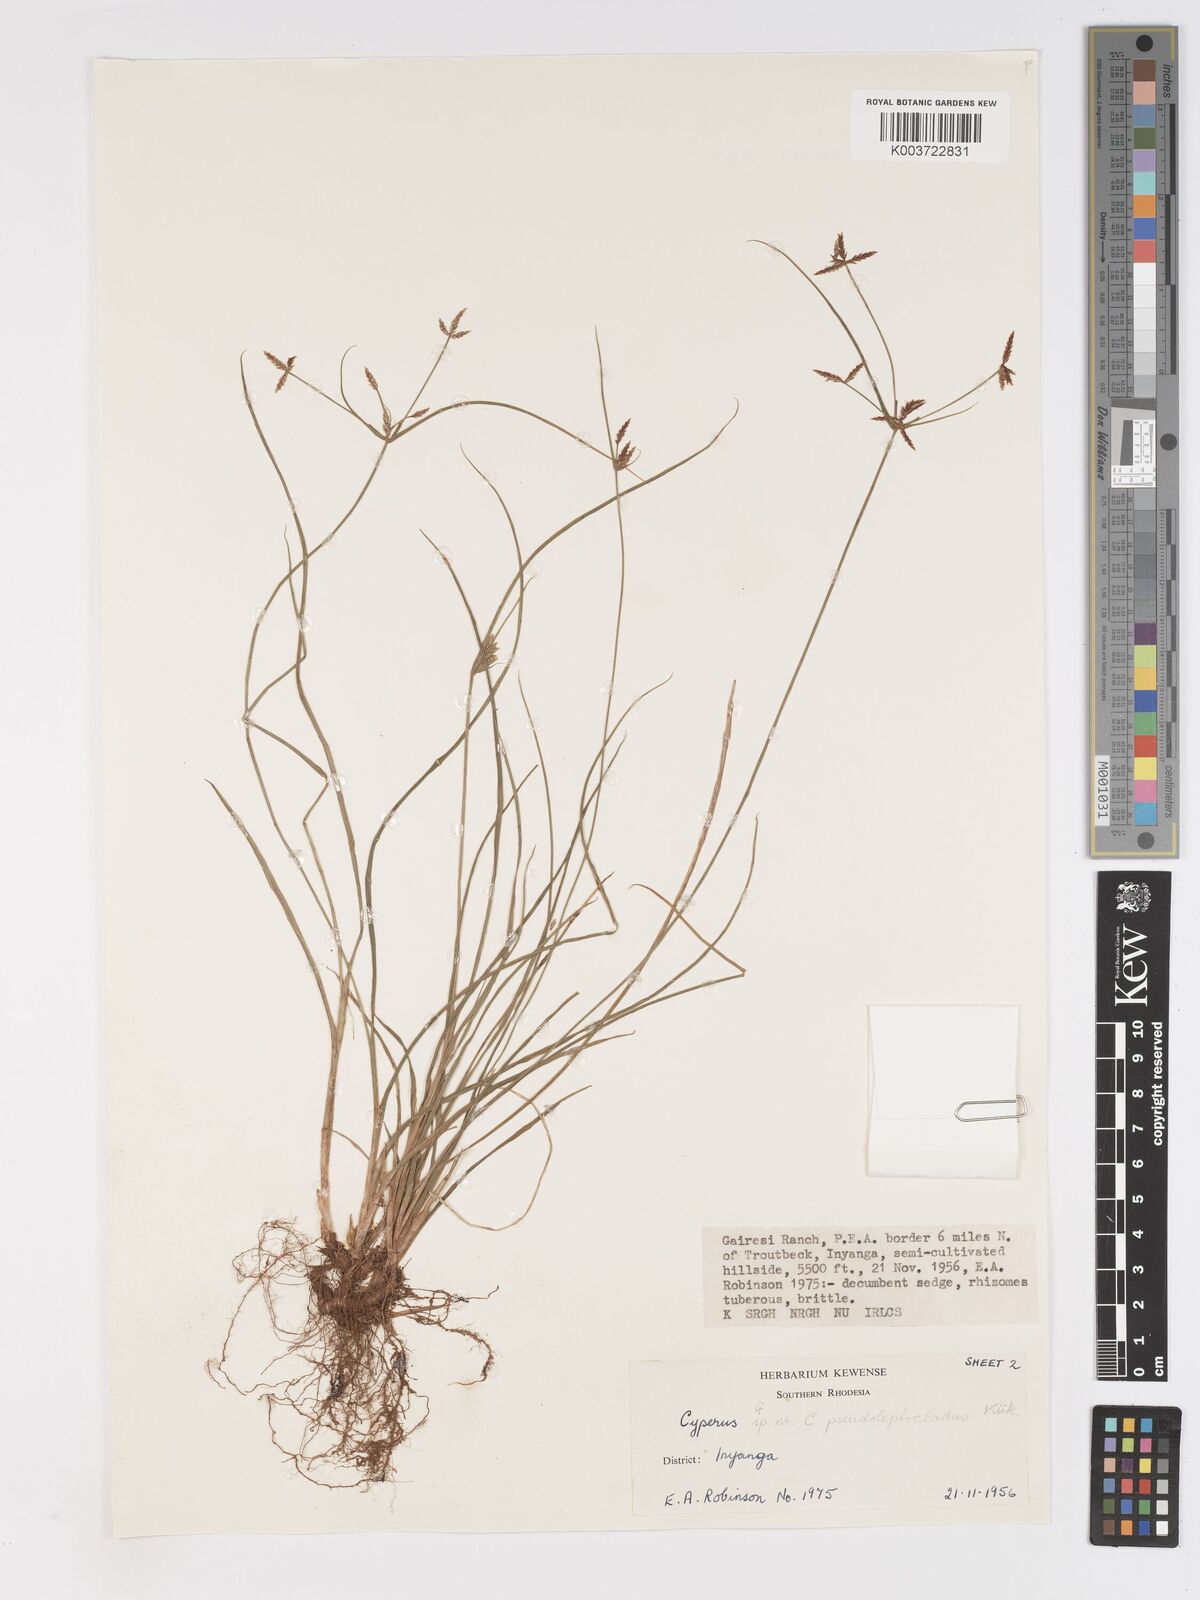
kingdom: Plantae
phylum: Tracheophyta
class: Liliopsida
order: Poales
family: Cyperaceae
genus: Cyperus
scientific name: Cyperus glaucophyllus
